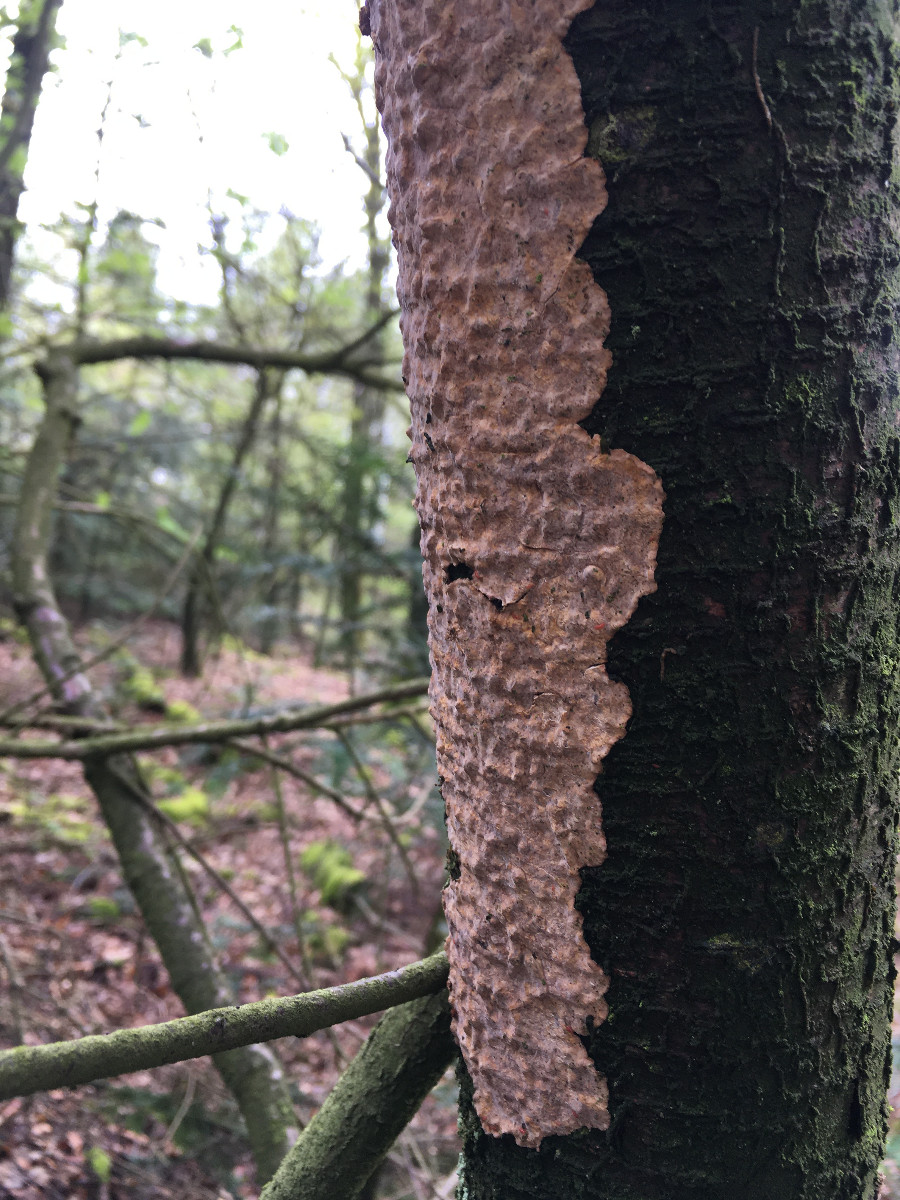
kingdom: Fungi
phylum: Basidiomycota
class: Agaricomycetes
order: Russulales
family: Stereaceae
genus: Stereum
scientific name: Stereum rugosum
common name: rynket lædersvamp
